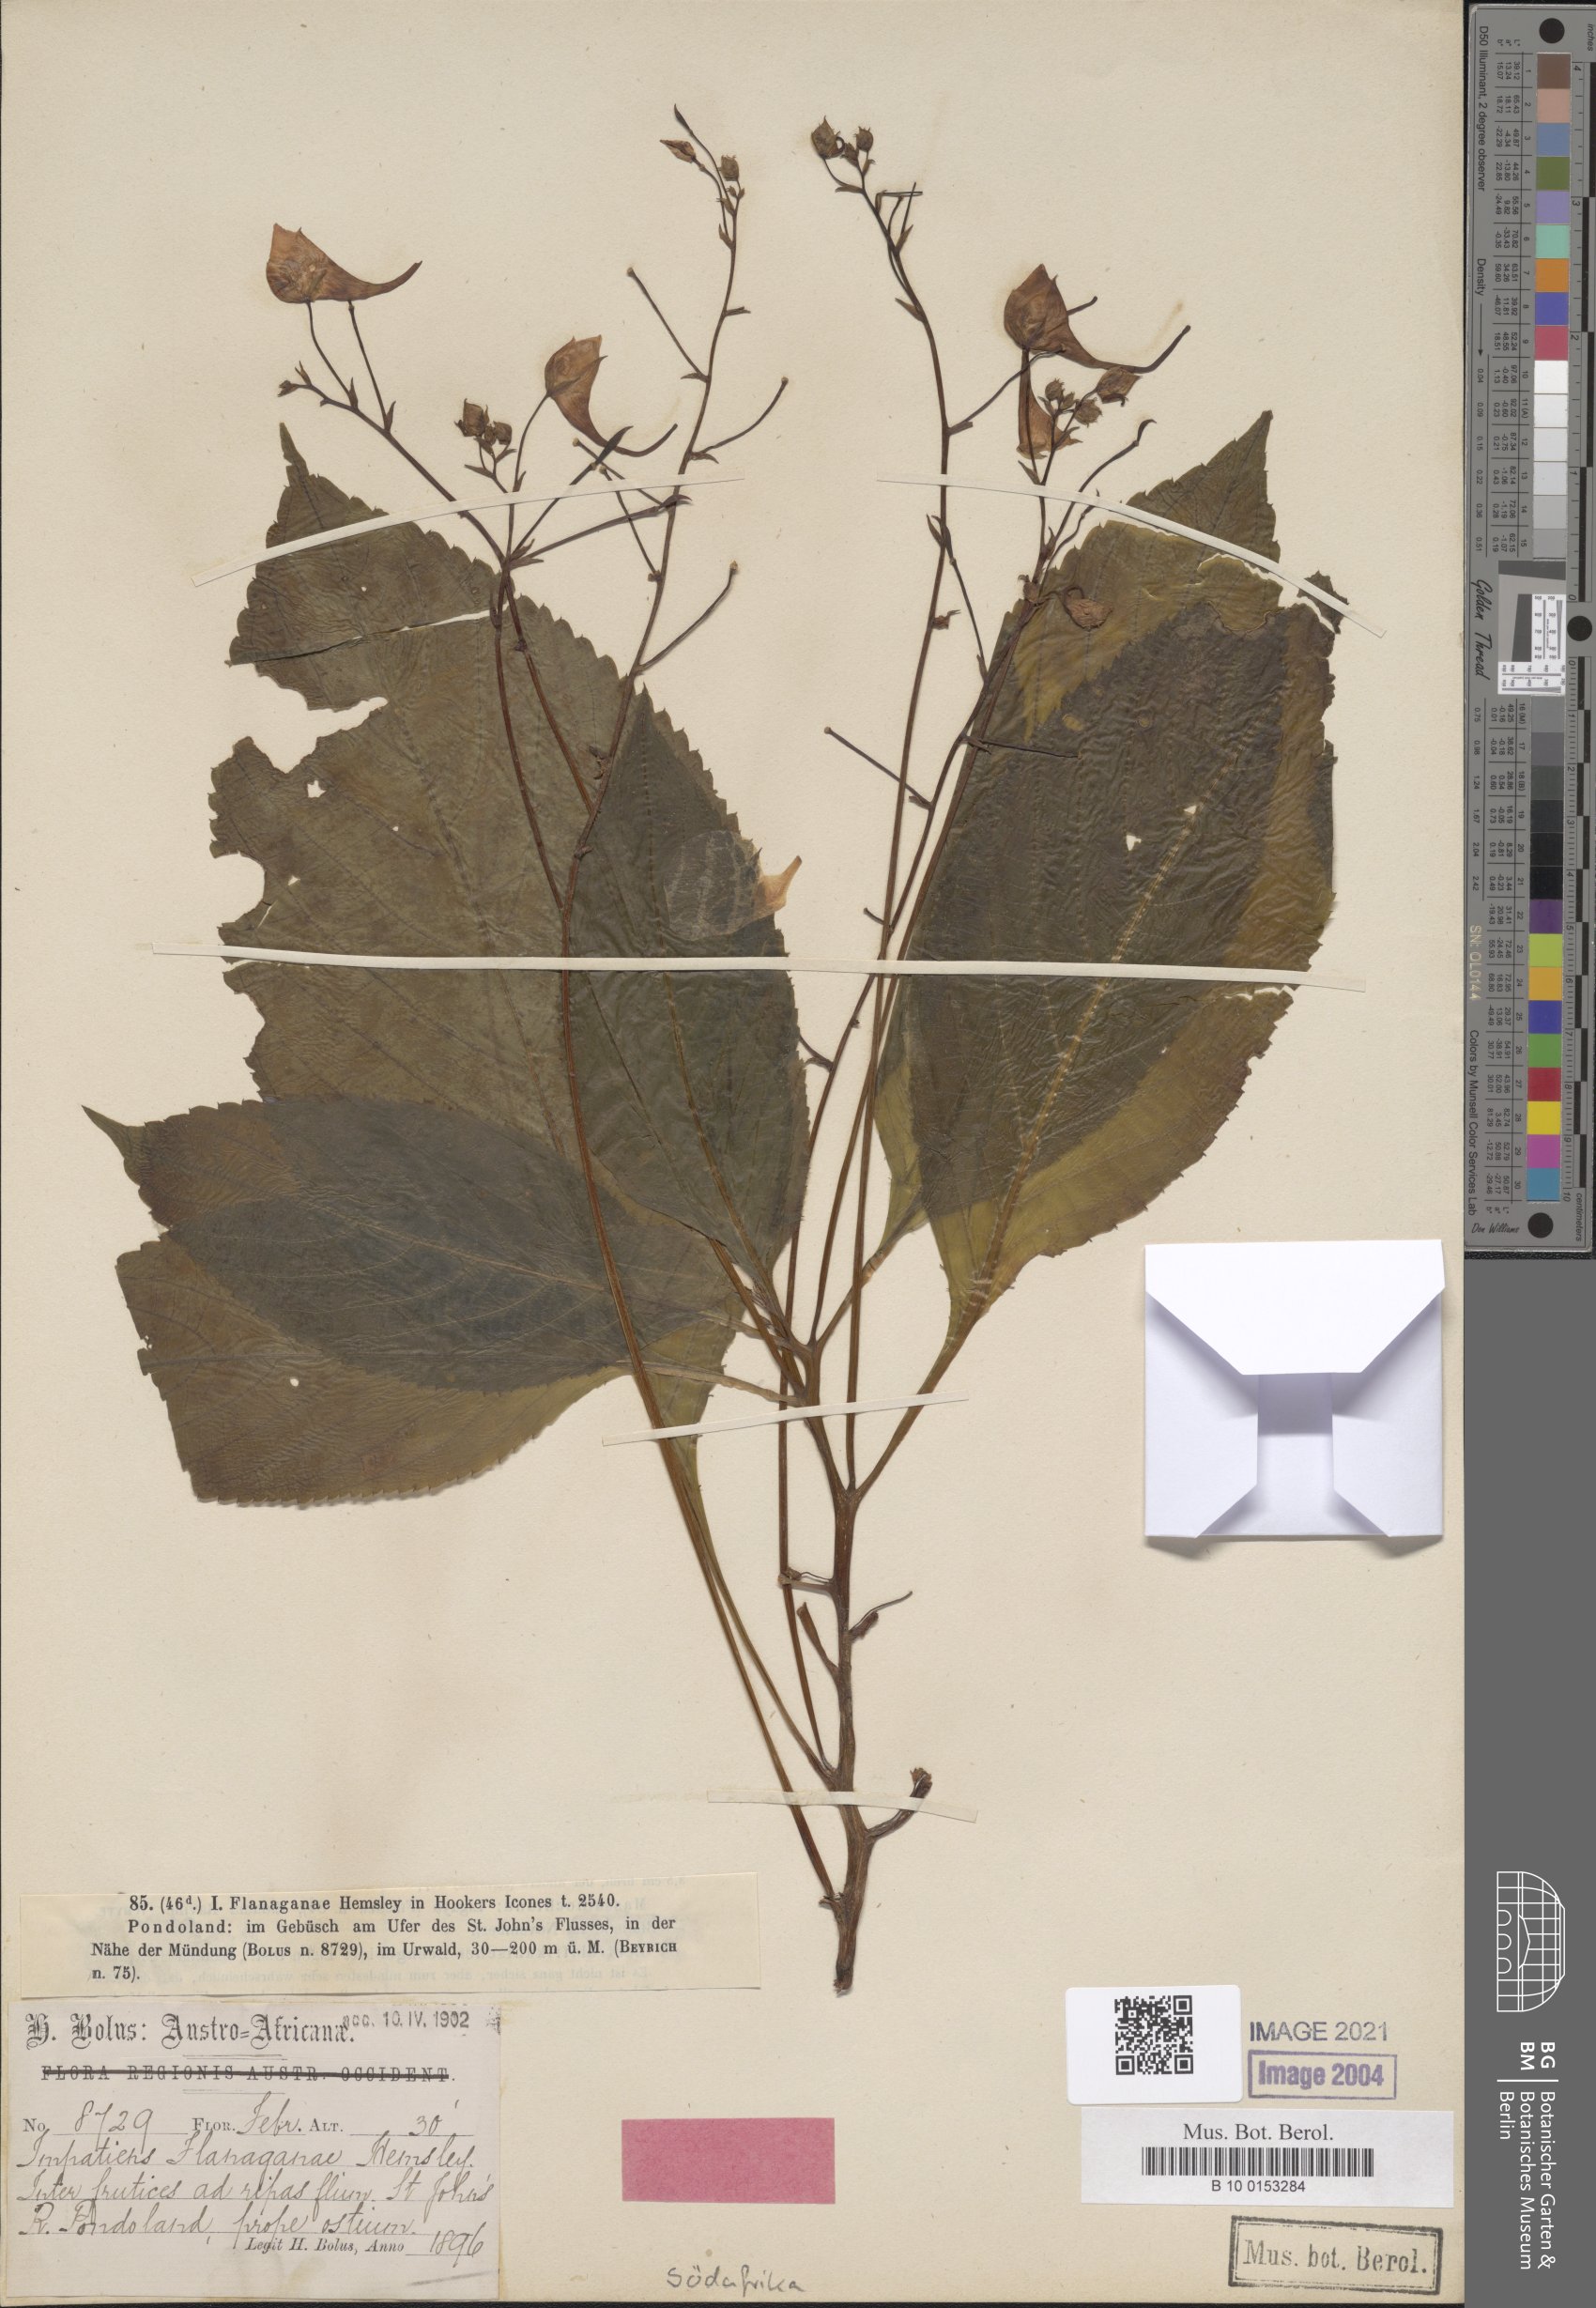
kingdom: Plantae
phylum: Tracheophyta
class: Magnoliopsida
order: Ericales
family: Balsaminaceae
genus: Impatiens
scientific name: Impatiens flanaganiae
